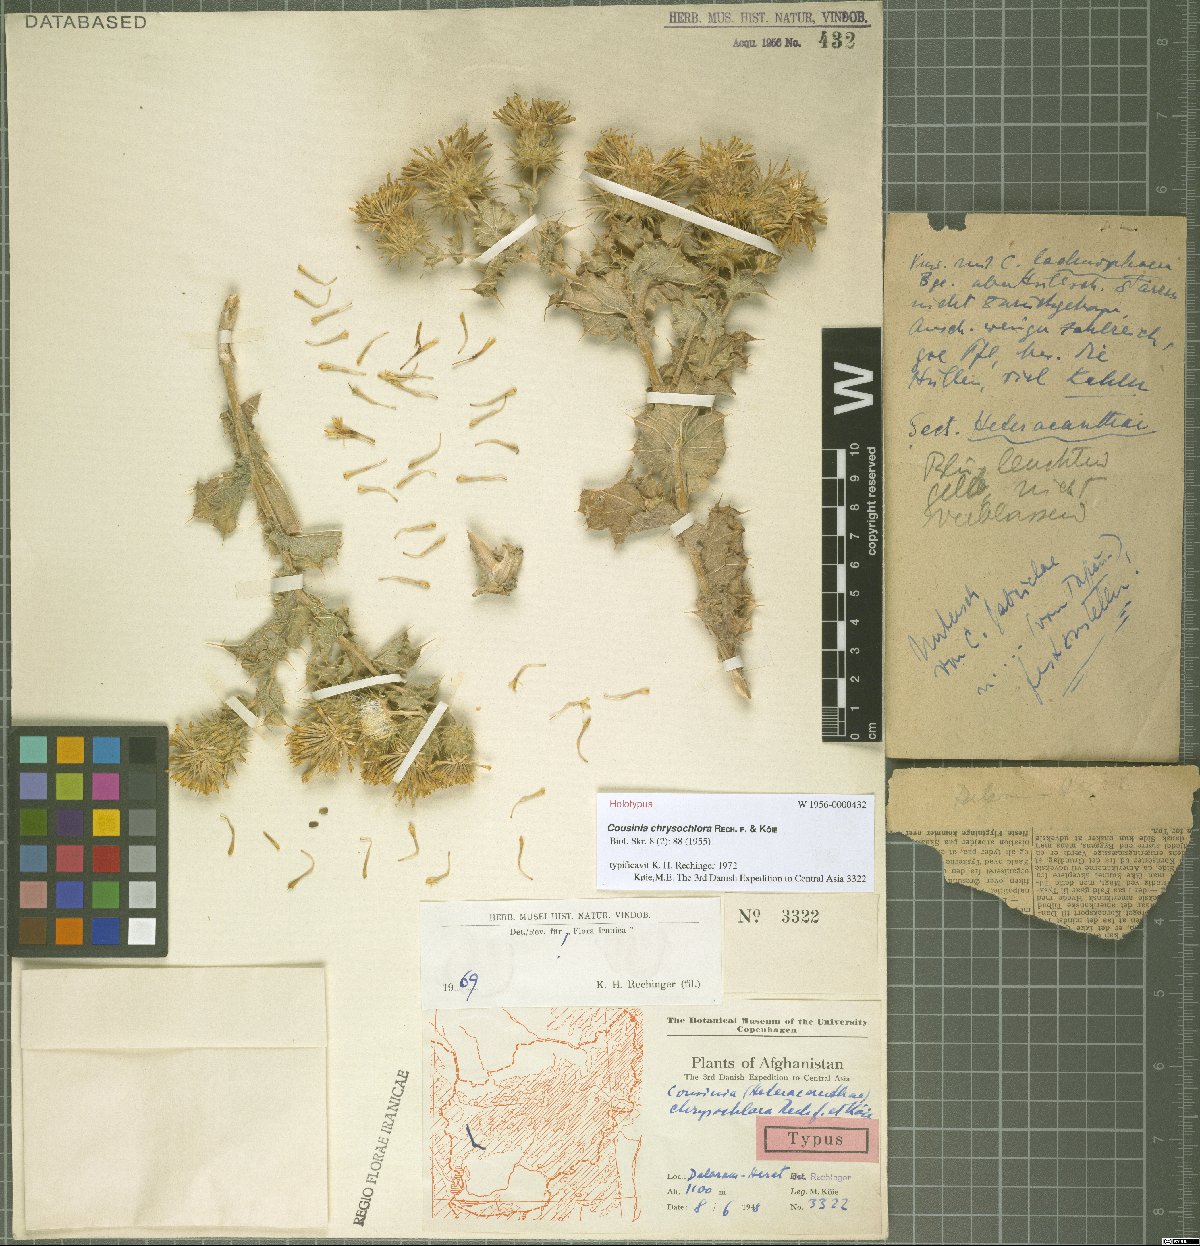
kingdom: Plantae
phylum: Tracheophyta
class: Magnoliopsida
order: Asterales
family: Asteraceae
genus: Cousinia
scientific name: Cousinia chrysochlora
